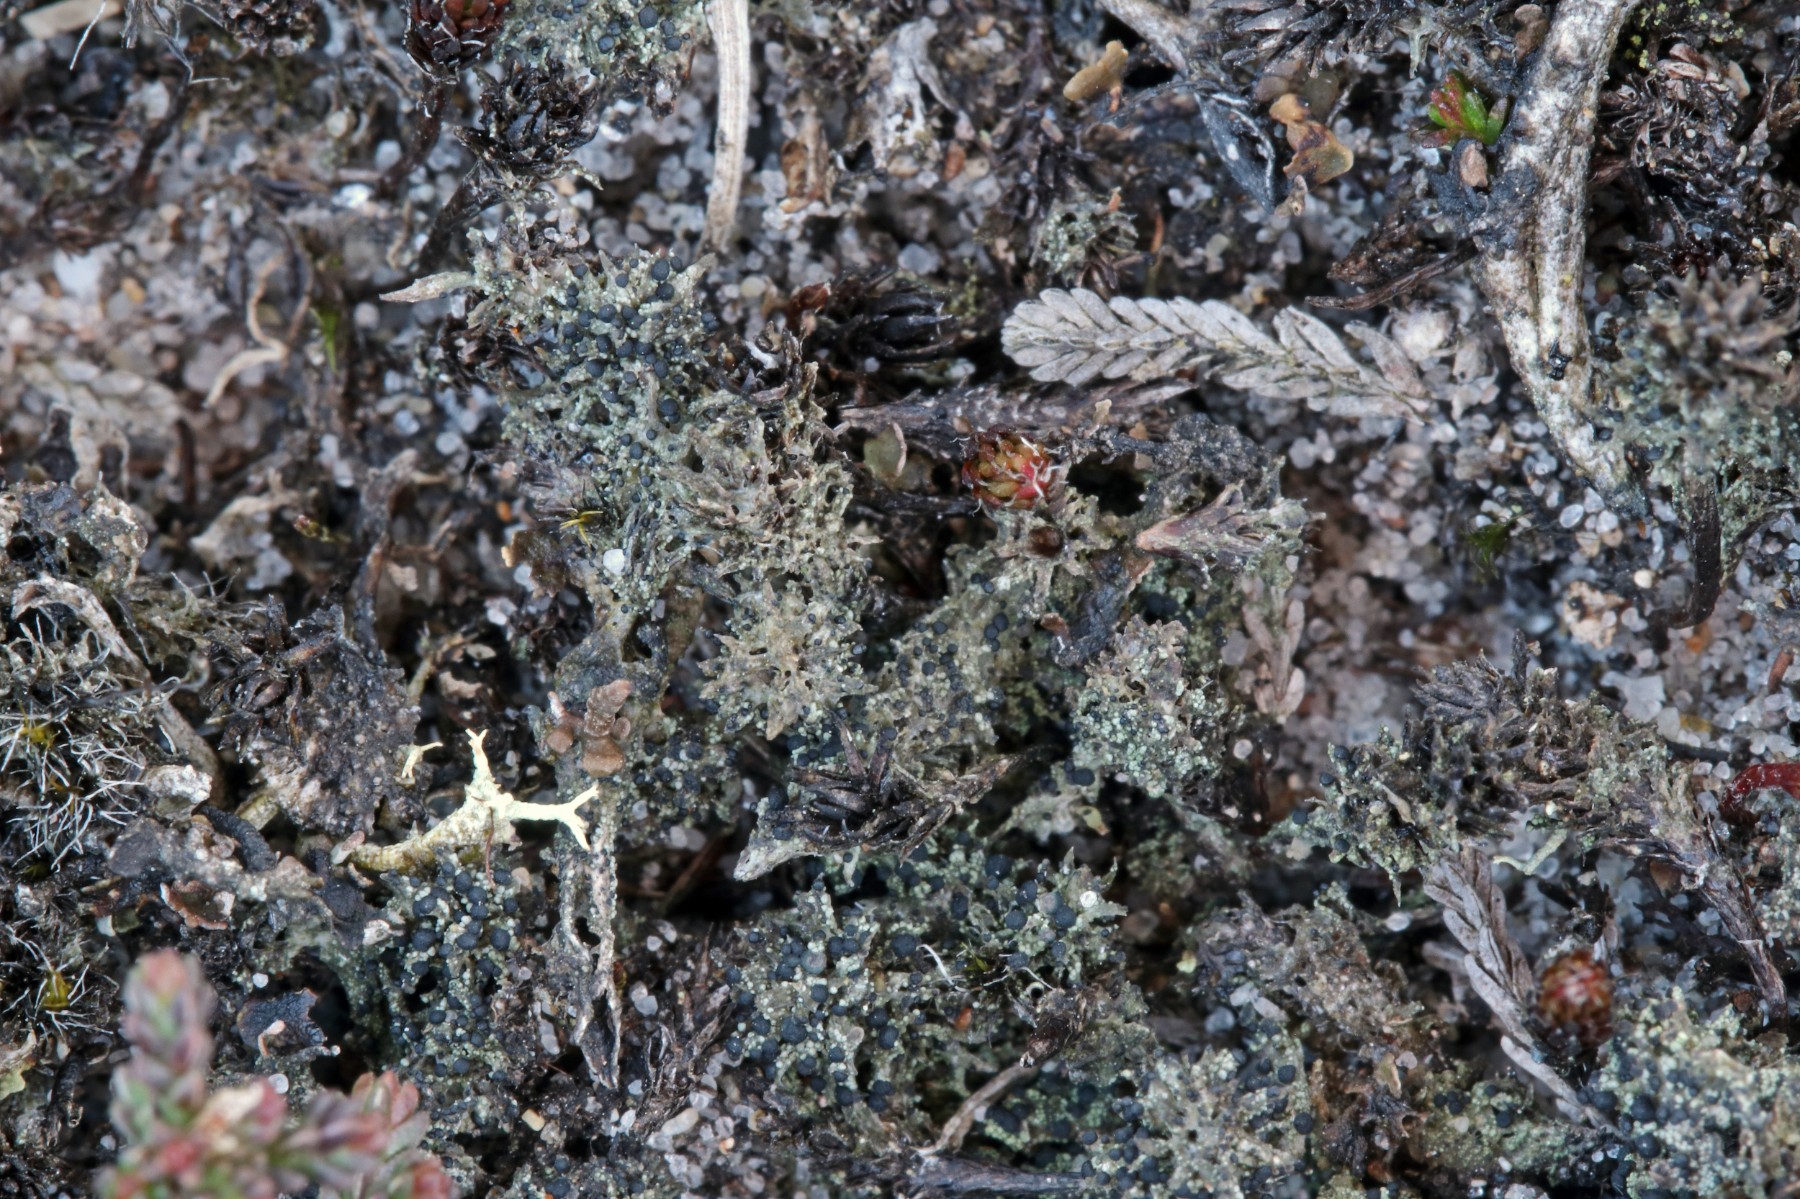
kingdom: Fungi
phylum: Ascomycota
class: Lecanoromycetes
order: Lecanorales
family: Byssolomataceae
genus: Micarea
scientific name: Micarea lignaria
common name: tørve-knaplav
